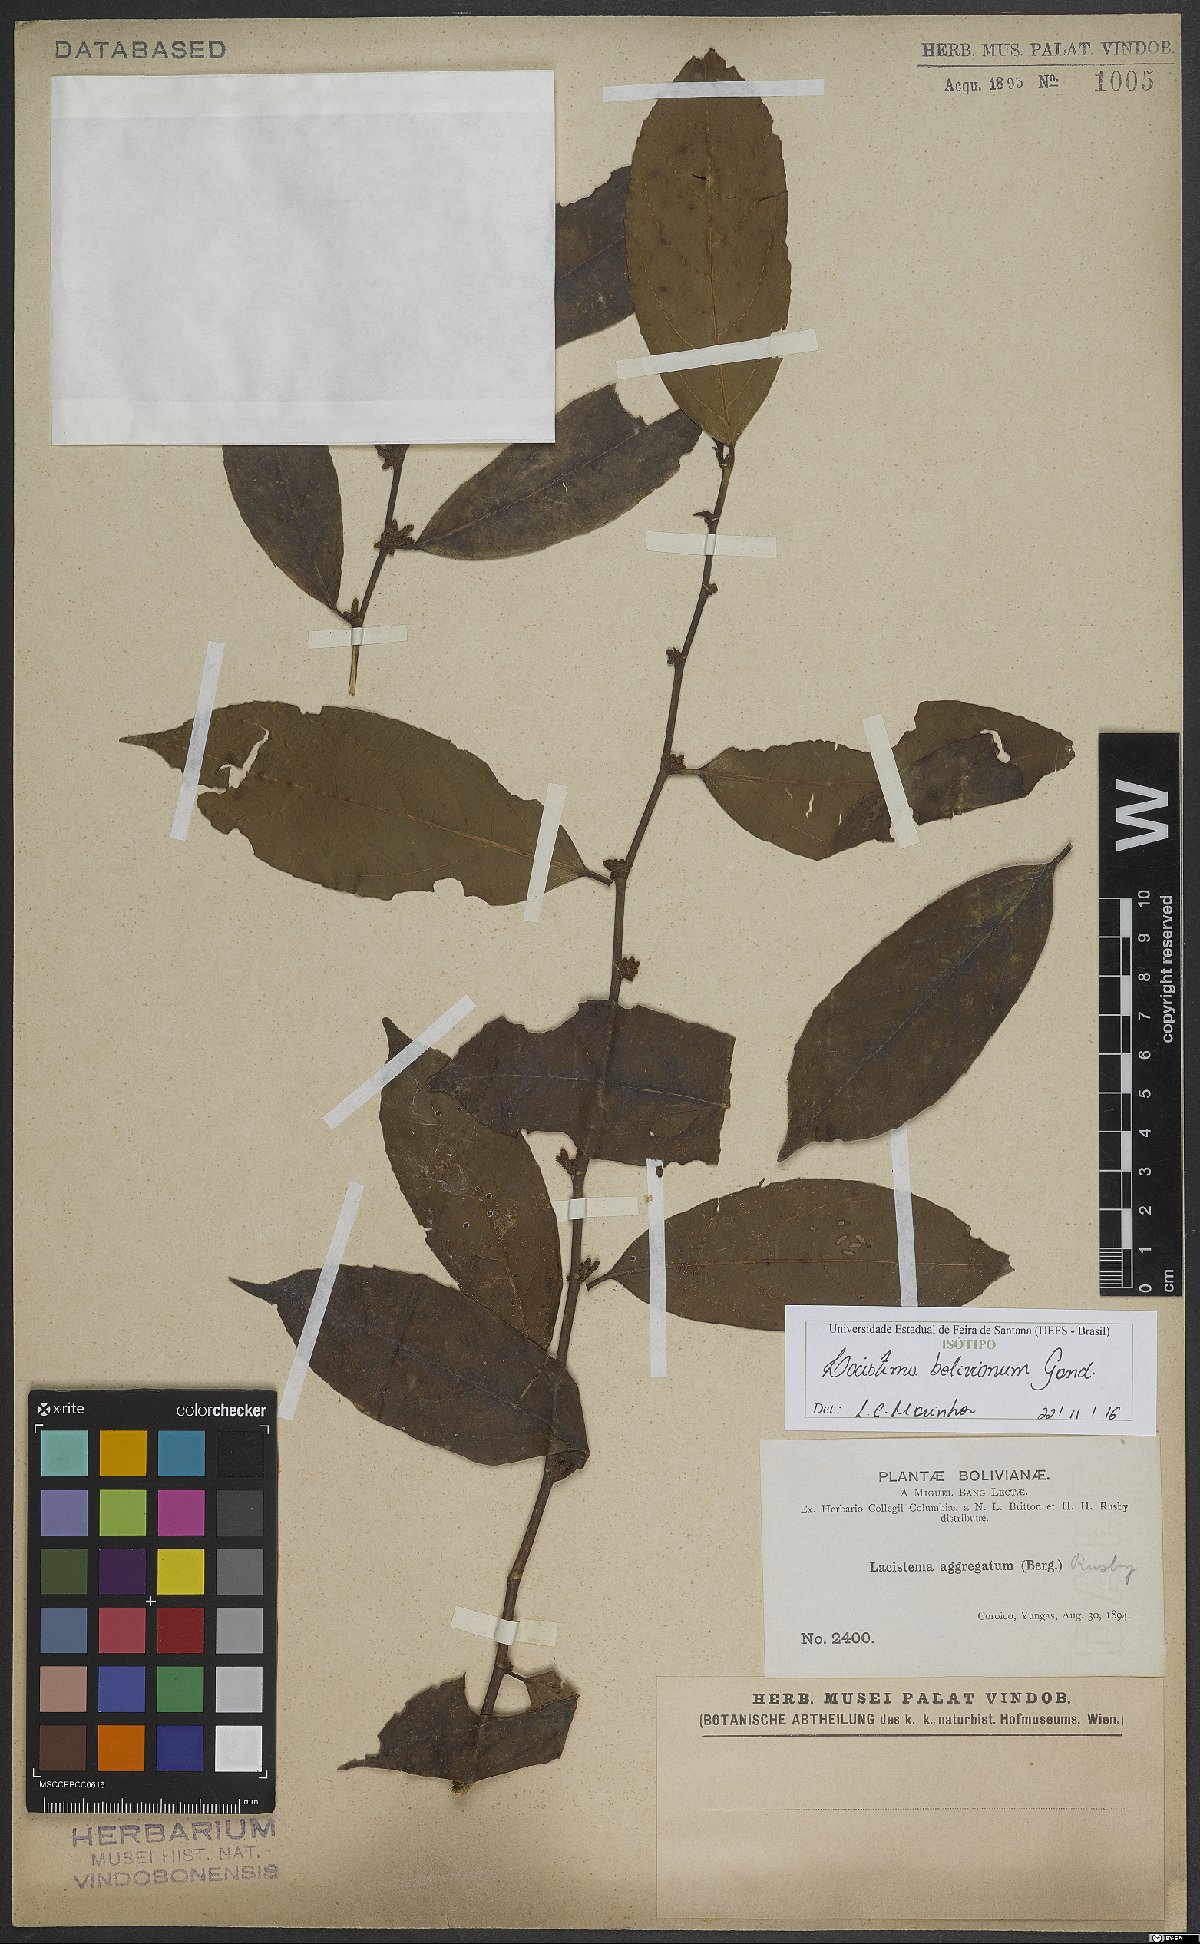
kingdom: Plantae
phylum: Tracheophyta
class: Magnoliopsida
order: Malpighiales
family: Lacistemataceae
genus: Lacistema
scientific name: Lacistema aggregatum
